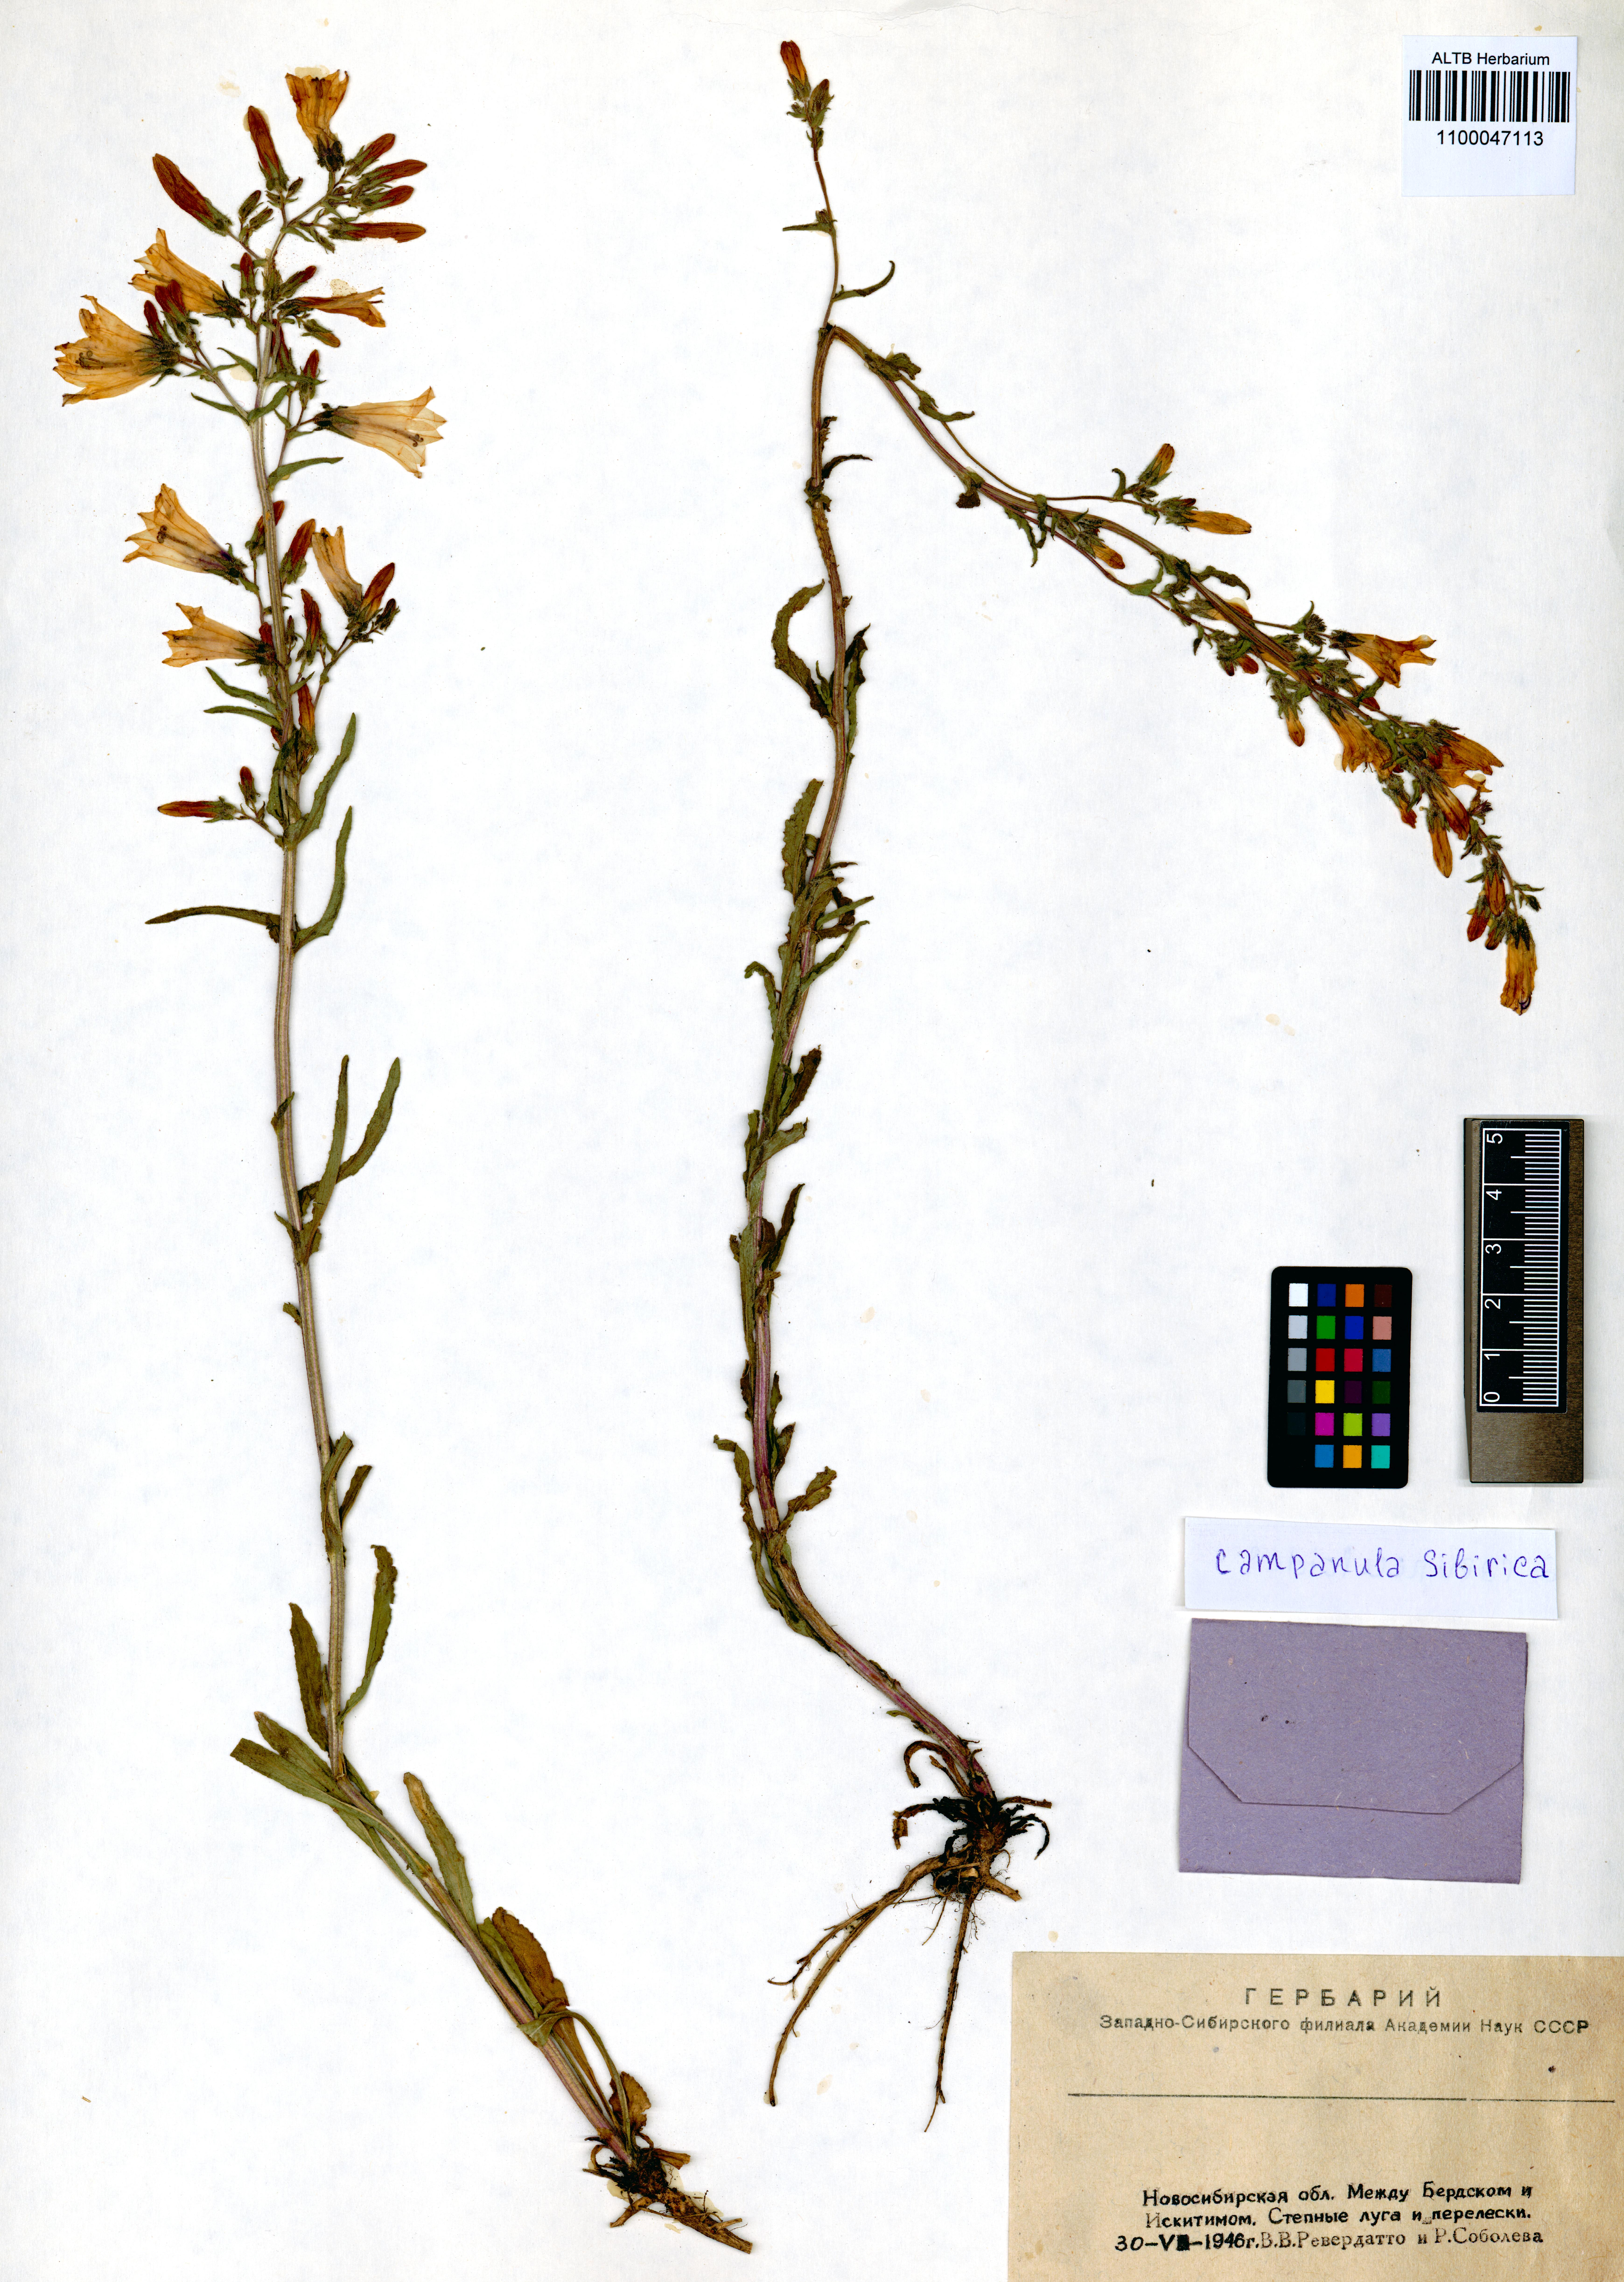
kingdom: Plantae
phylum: Tracheophyta
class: Magnoliopsida
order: Asterales
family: Campanulaceae
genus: Campanula
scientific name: Campanula sibirica
